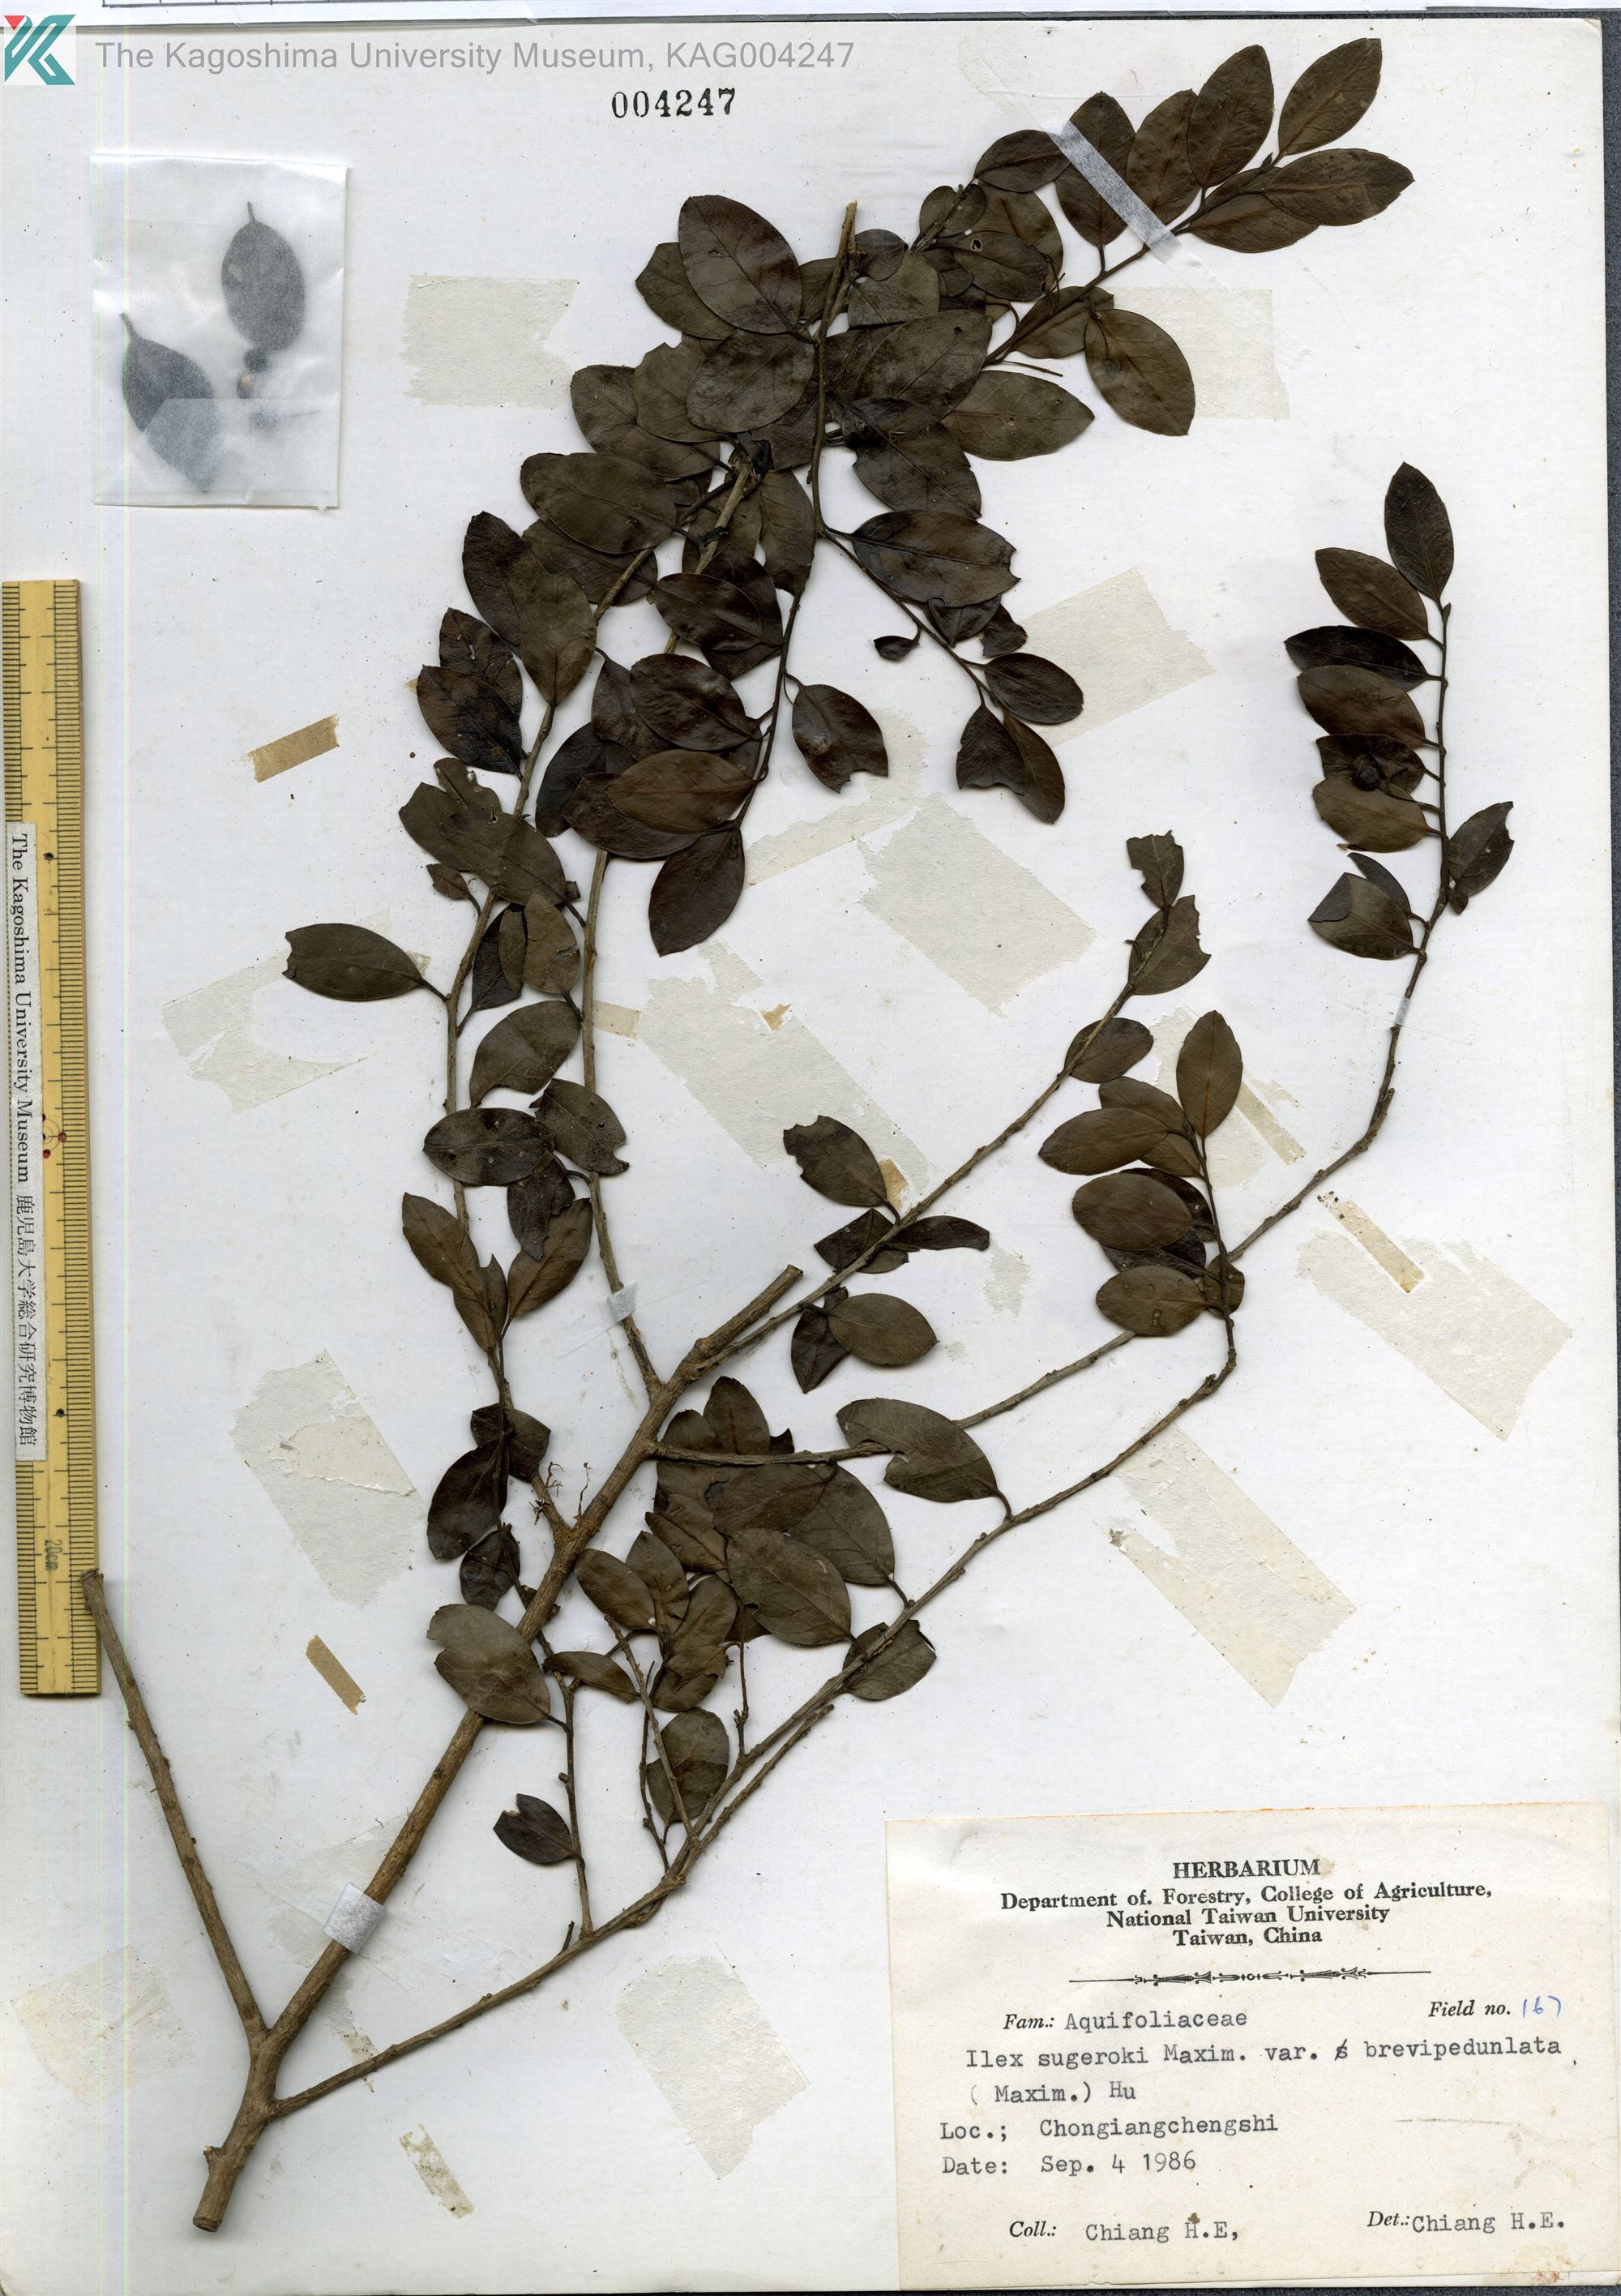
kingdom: Plantae
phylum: Tracheophyta
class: Magnoliopsida
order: Aquifoliales
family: Aquifoliaceae
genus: Ilex
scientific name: Ilex sugerokii
